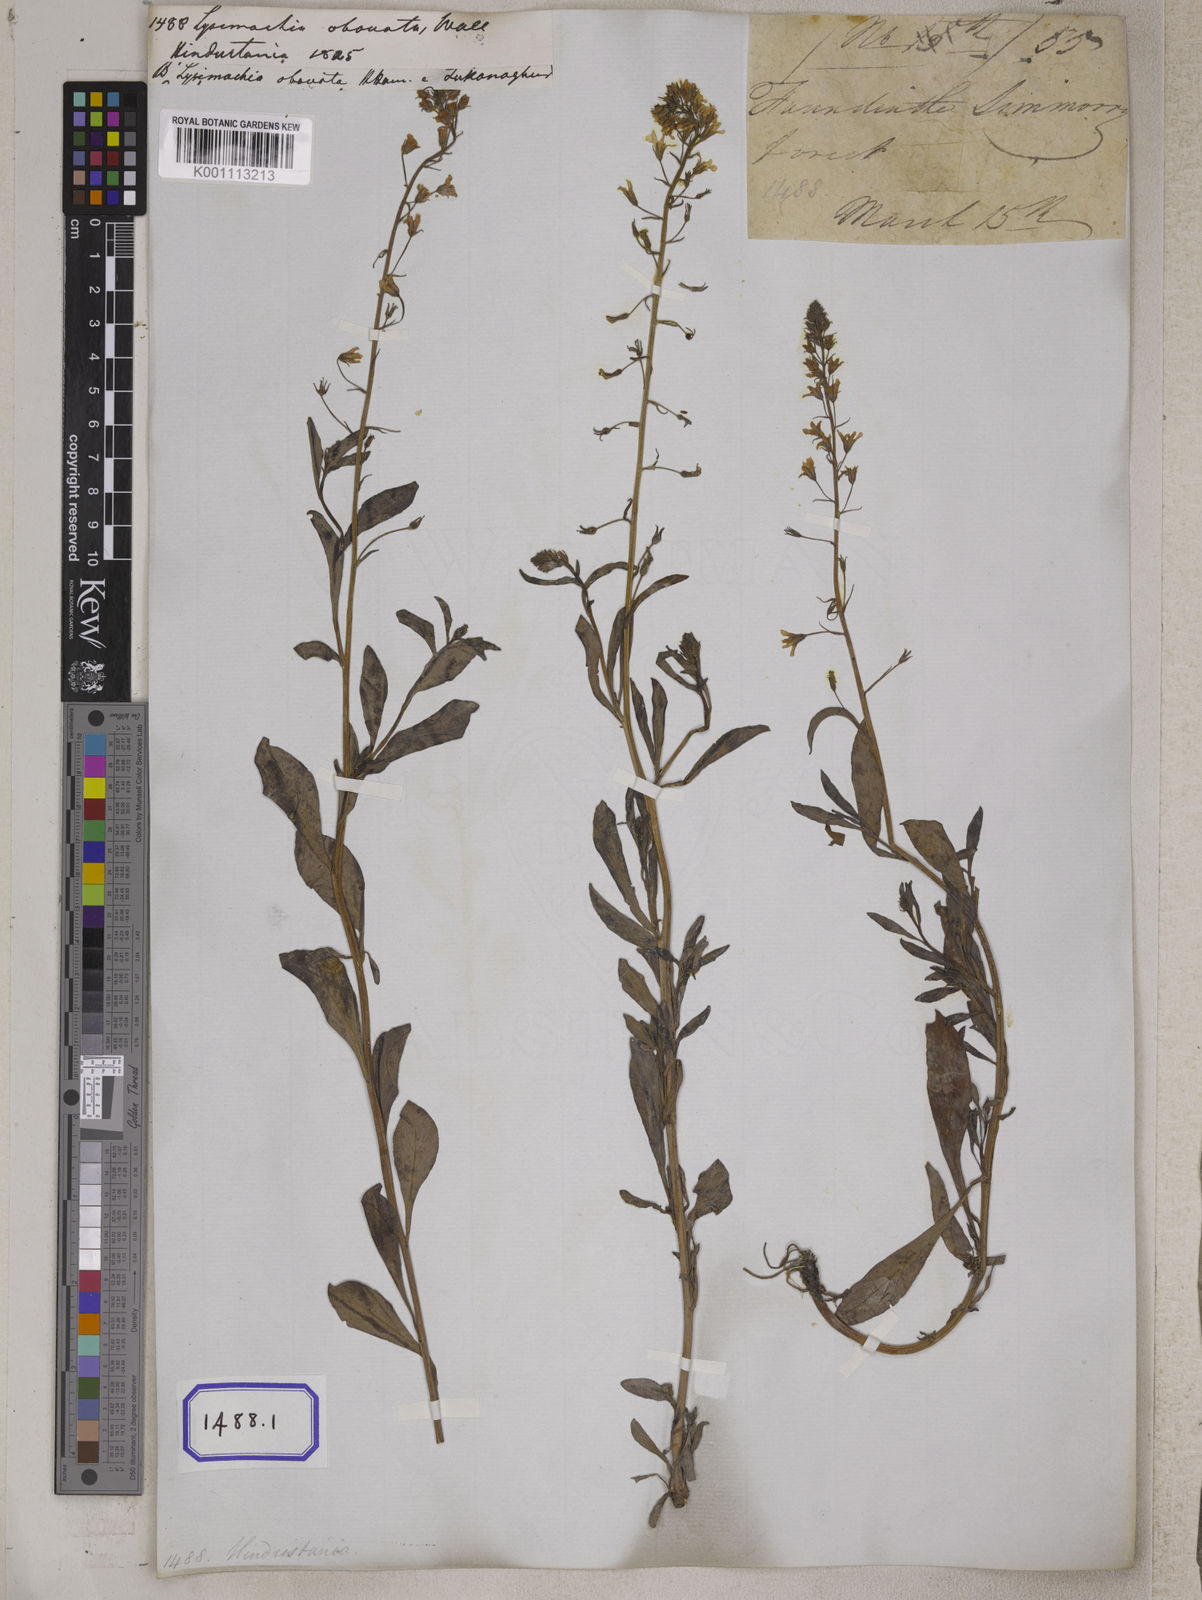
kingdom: Plantae
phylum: Tracheophyta
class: Magnoliopsida
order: Ericales
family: Primulaceae
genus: Lysimachia
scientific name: Lysimachia candida
